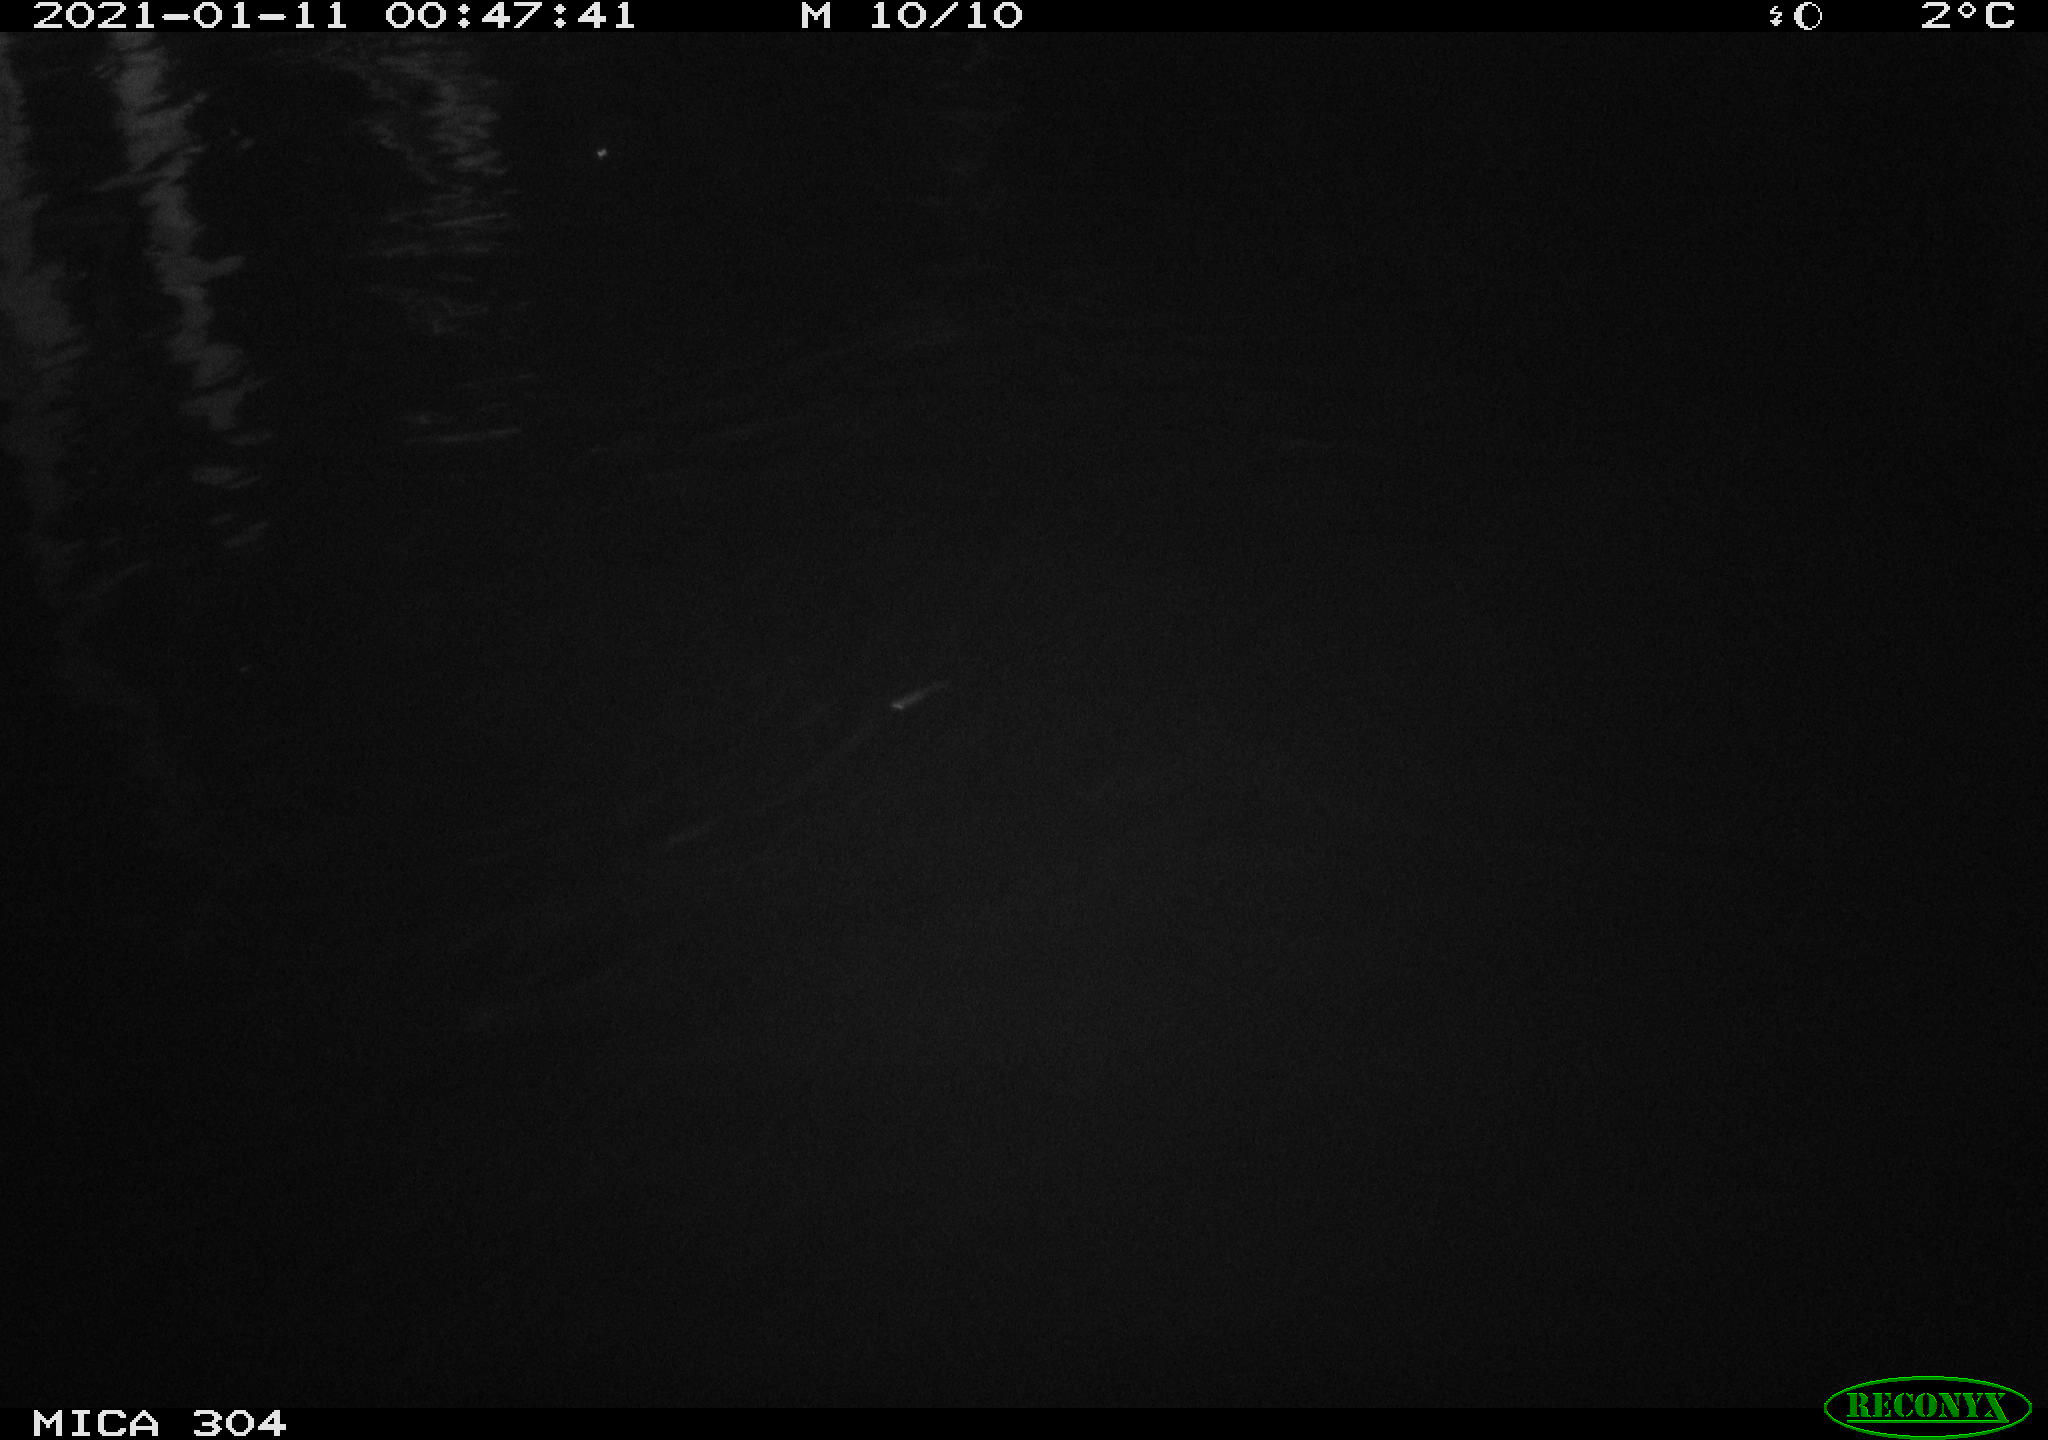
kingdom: Animalia
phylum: Chordata
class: Mammalia
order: Rodentia
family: Muridae
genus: Rattus
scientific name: Rattus norvegicus
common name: Brown rat
